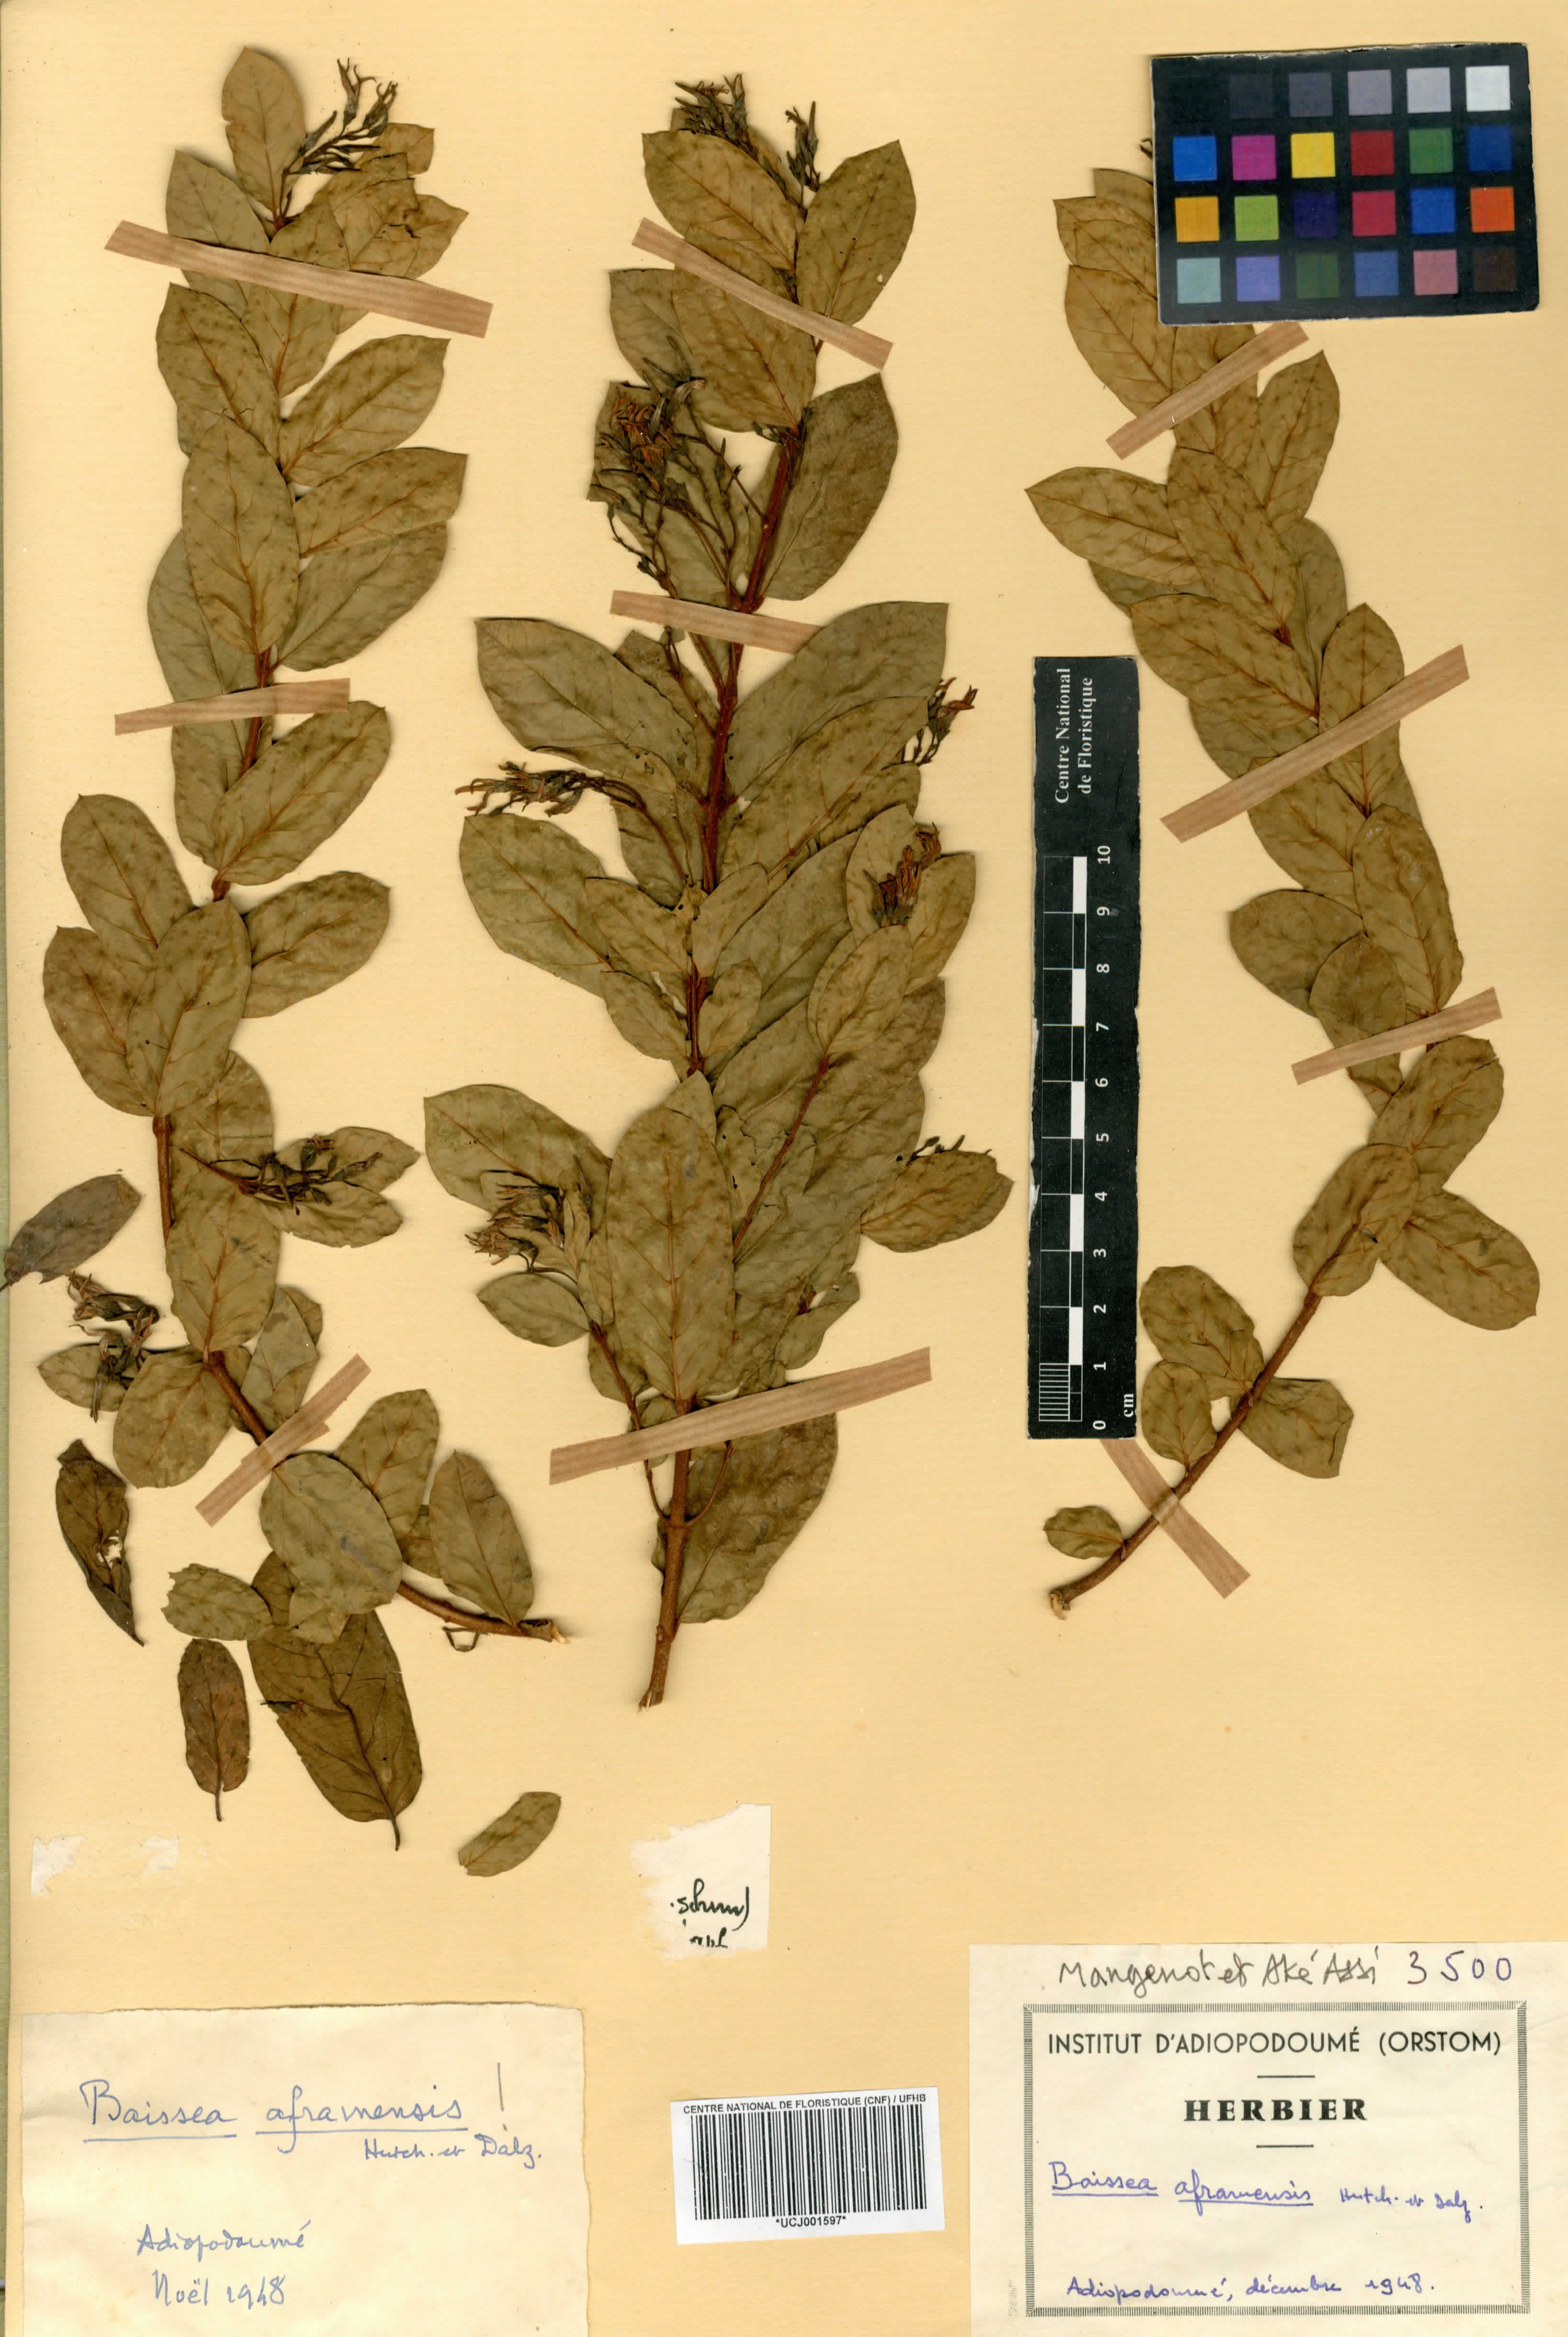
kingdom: Plantae
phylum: Tracheophyta
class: Magnoliopsida
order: Gentianales
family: Apocynaceae
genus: Baissea
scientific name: Baissea zygodioides
